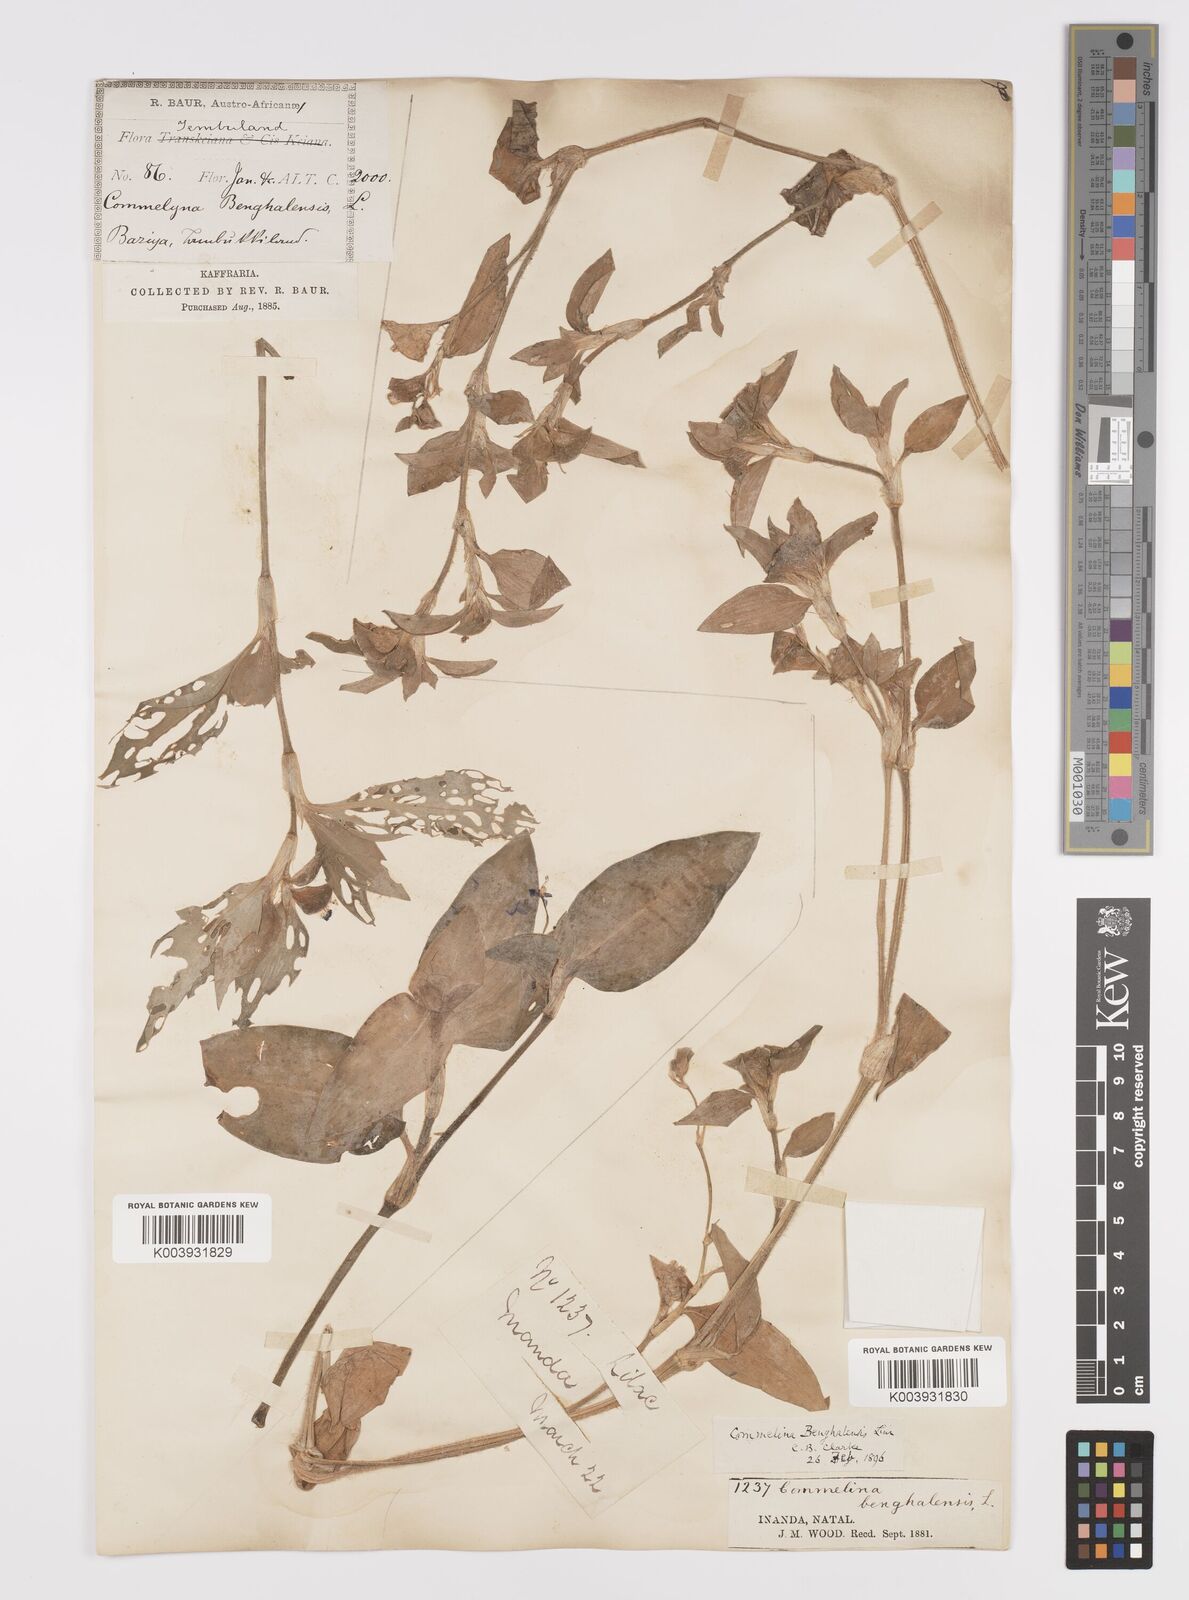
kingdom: Plantae
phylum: Tracheophyta
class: Liliopsida
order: Commelinales
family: Commelinaceae
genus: Commelina
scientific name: Commelina benghalensis
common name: Jio
